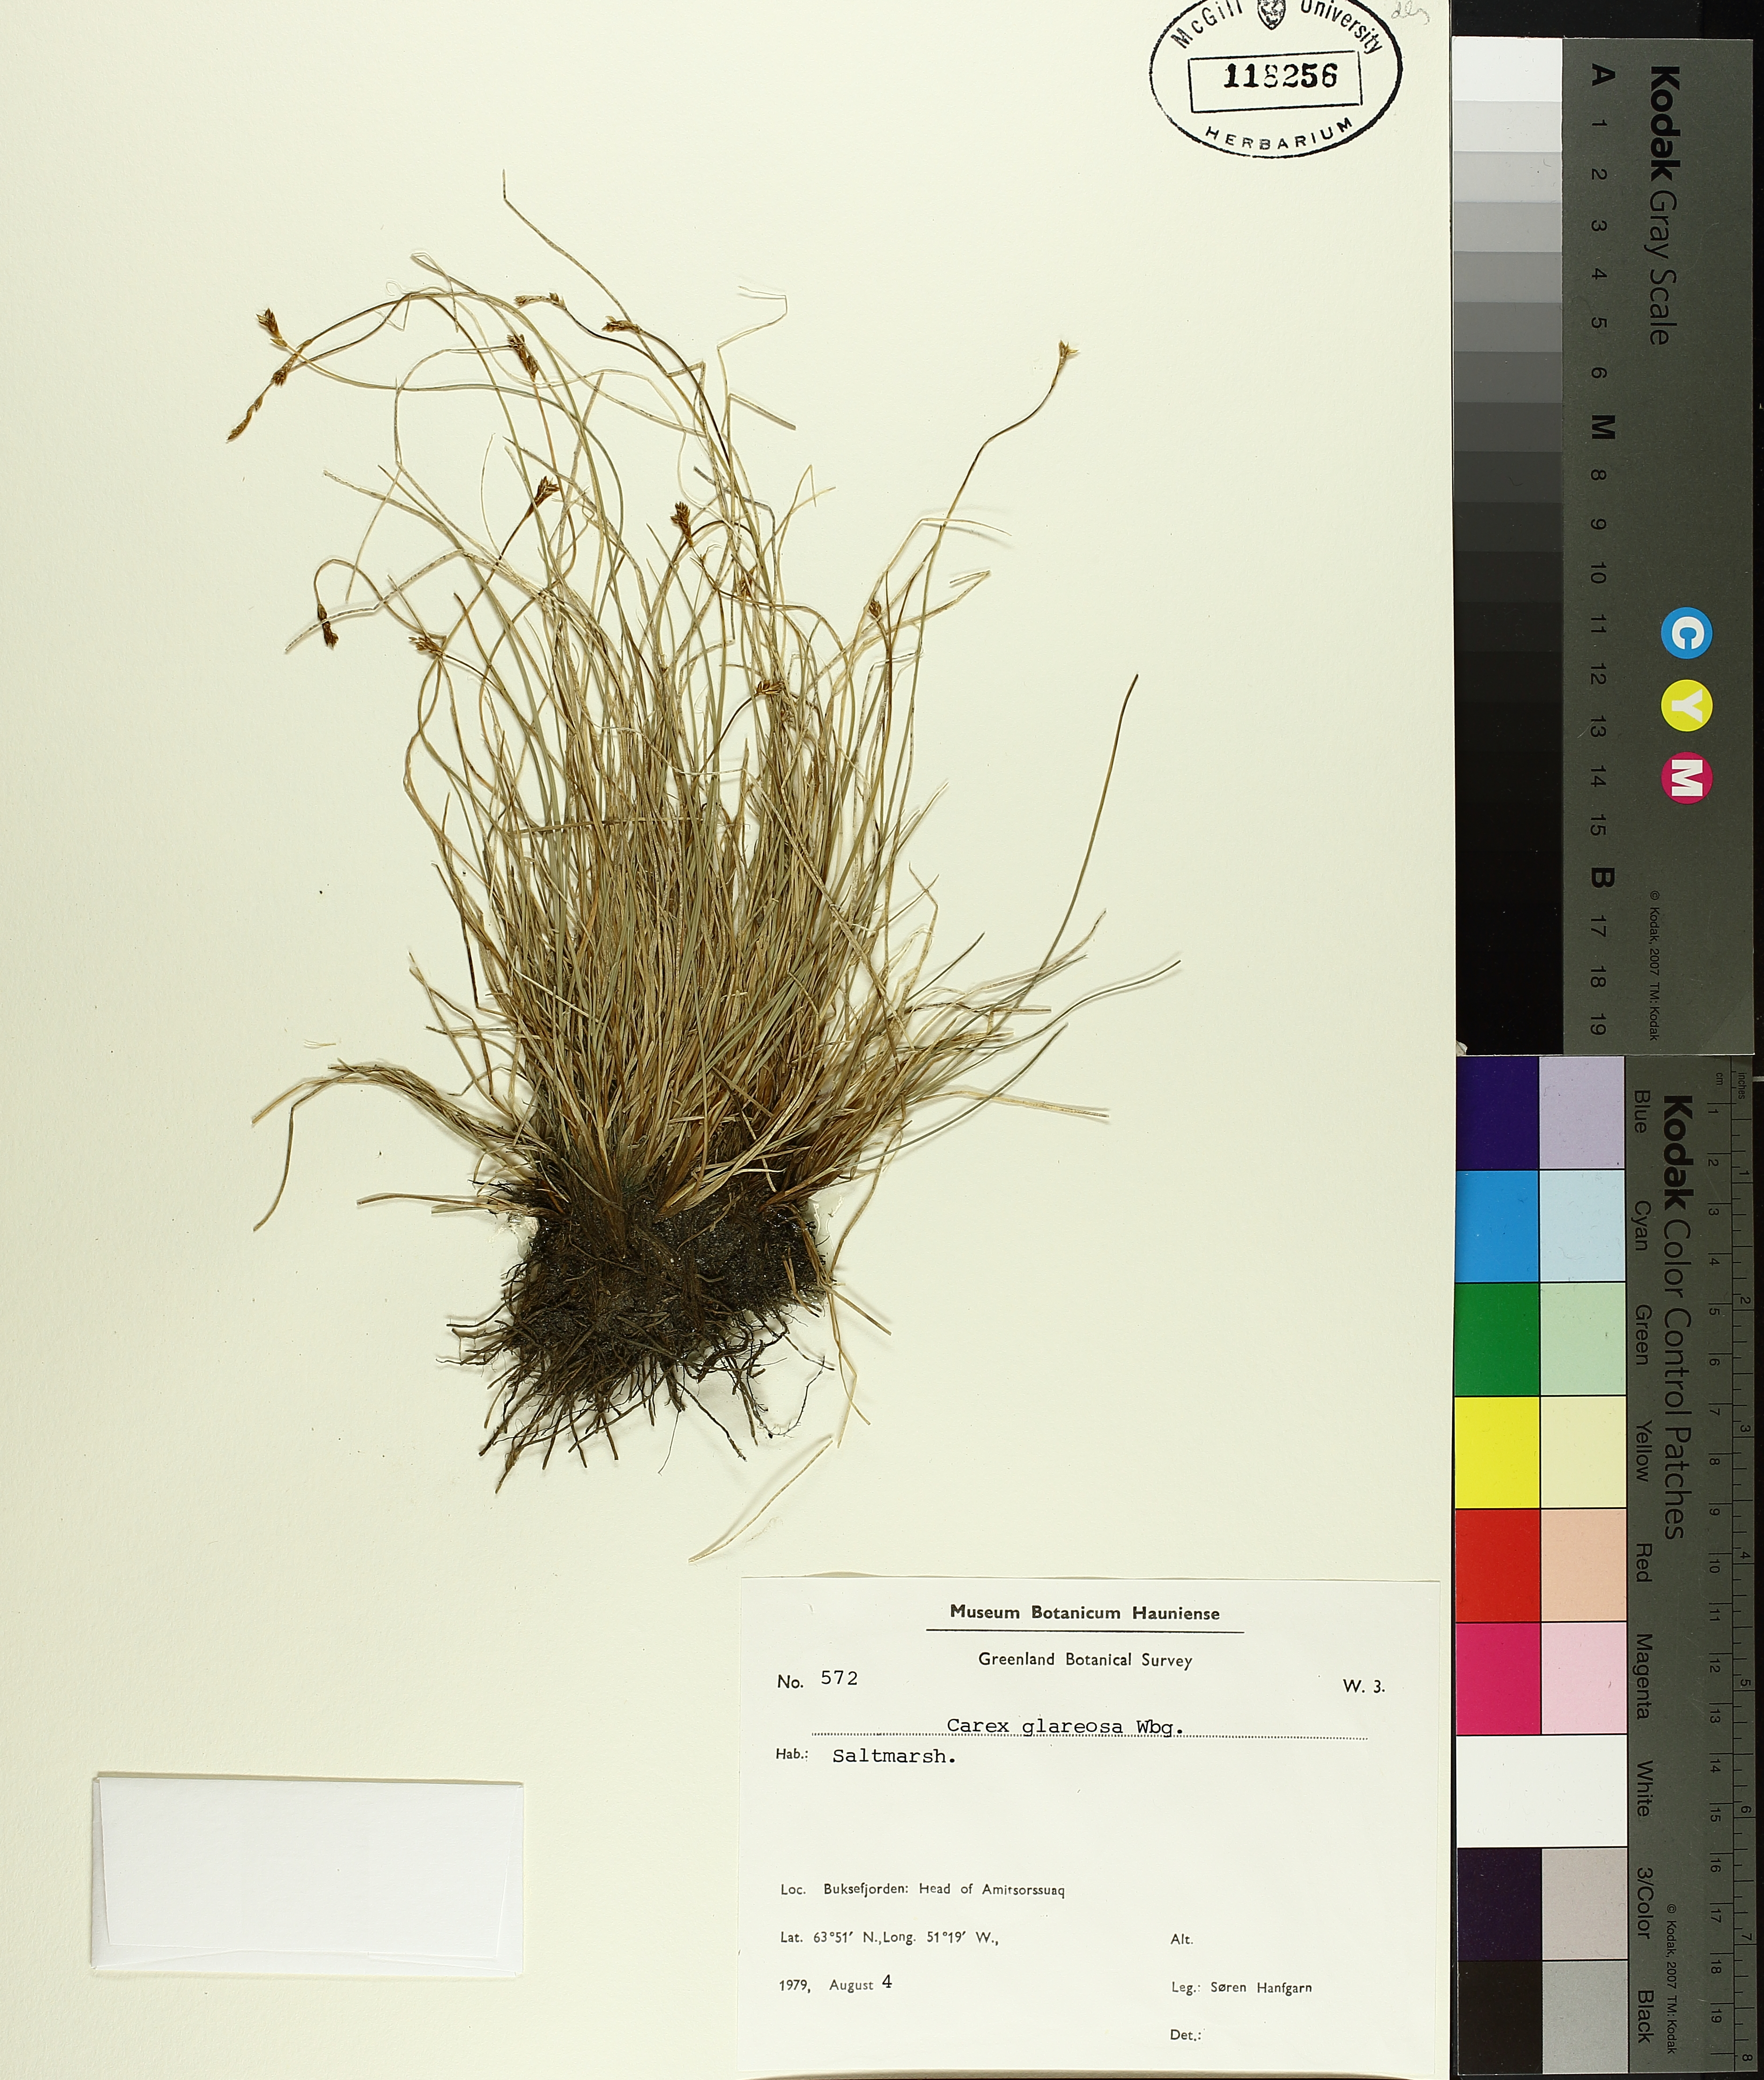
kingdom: Plantae
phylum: Tracheophyta
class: Liliopsida
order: Poales
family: Cyperaceae
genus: Carex
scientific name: Carex glareosa
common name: Clustered sedge
